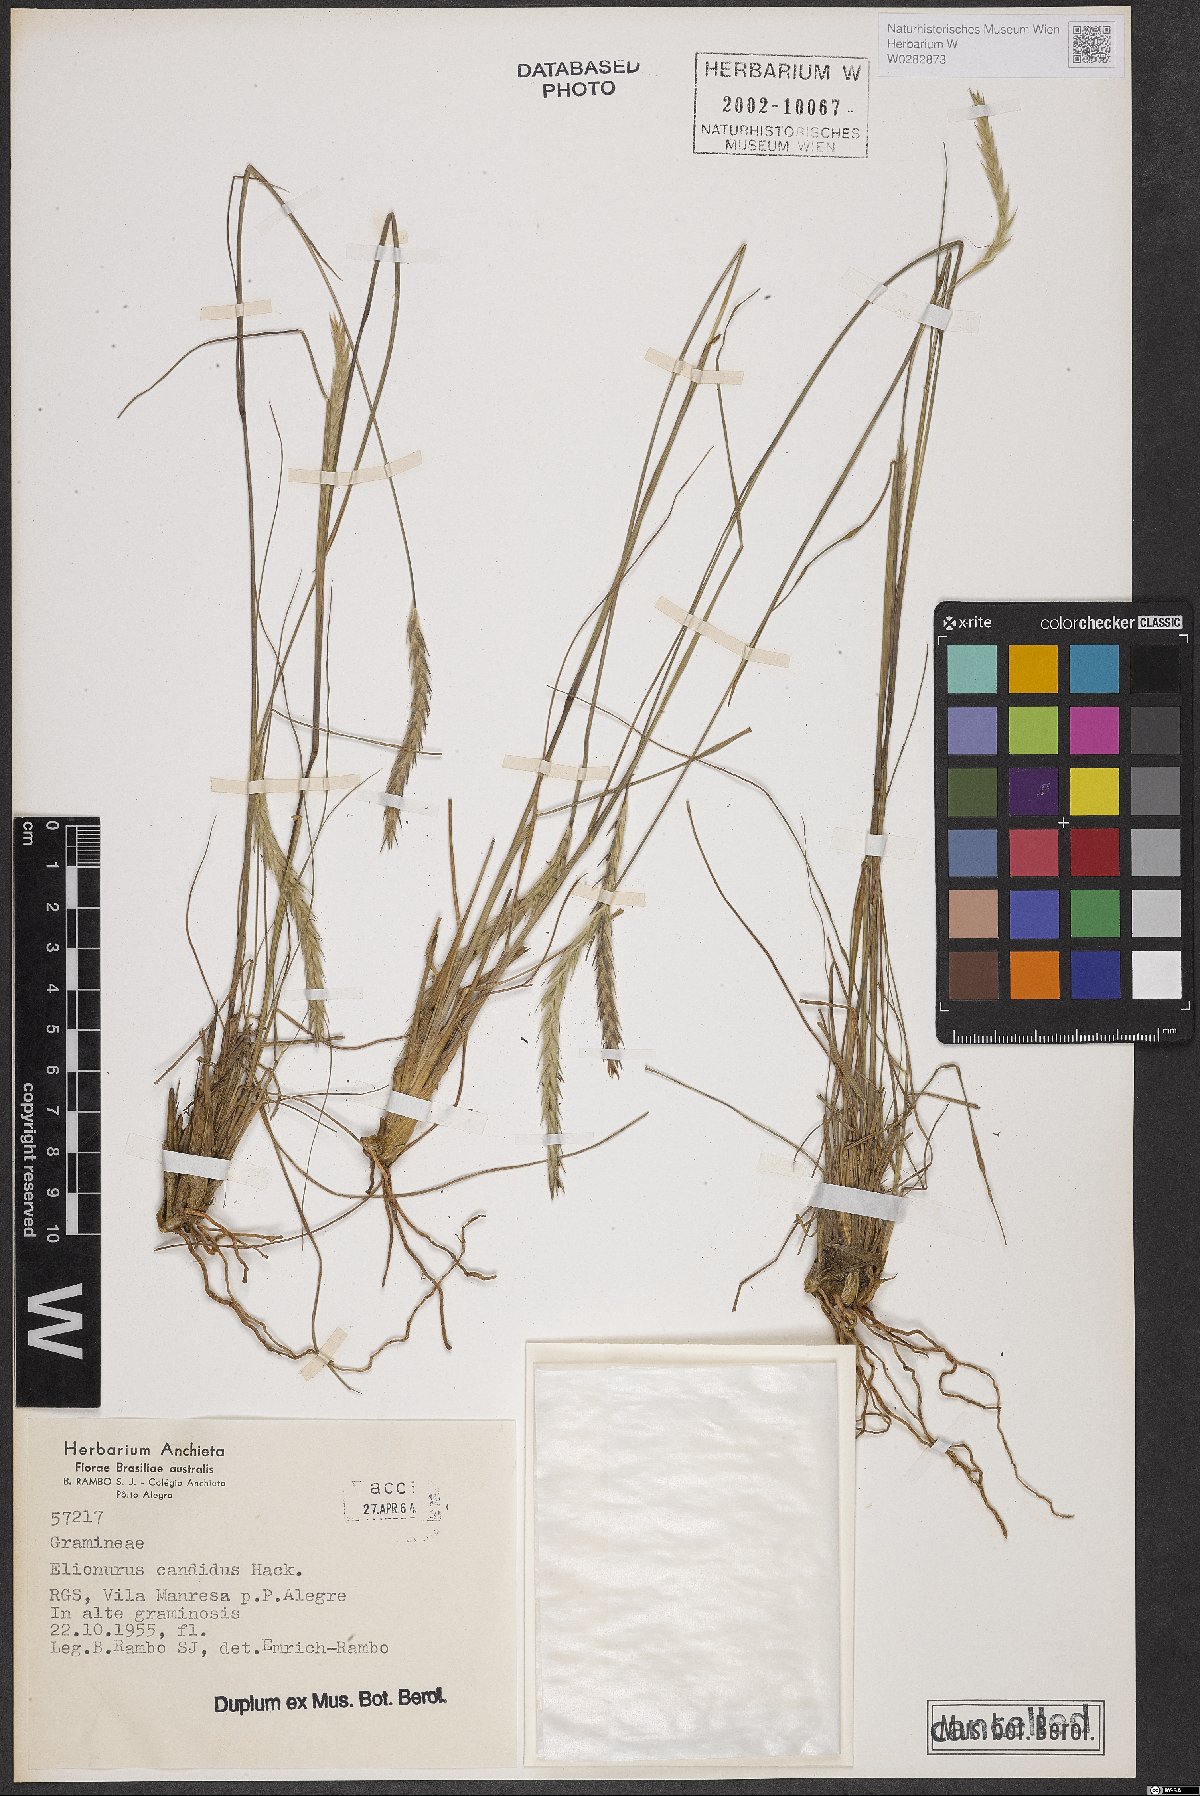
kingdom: Plantae
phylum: Tracheophyta
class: Liliopsida
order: Poales
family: Poaceae
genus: Elionurus
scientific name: Elionurus muticus
